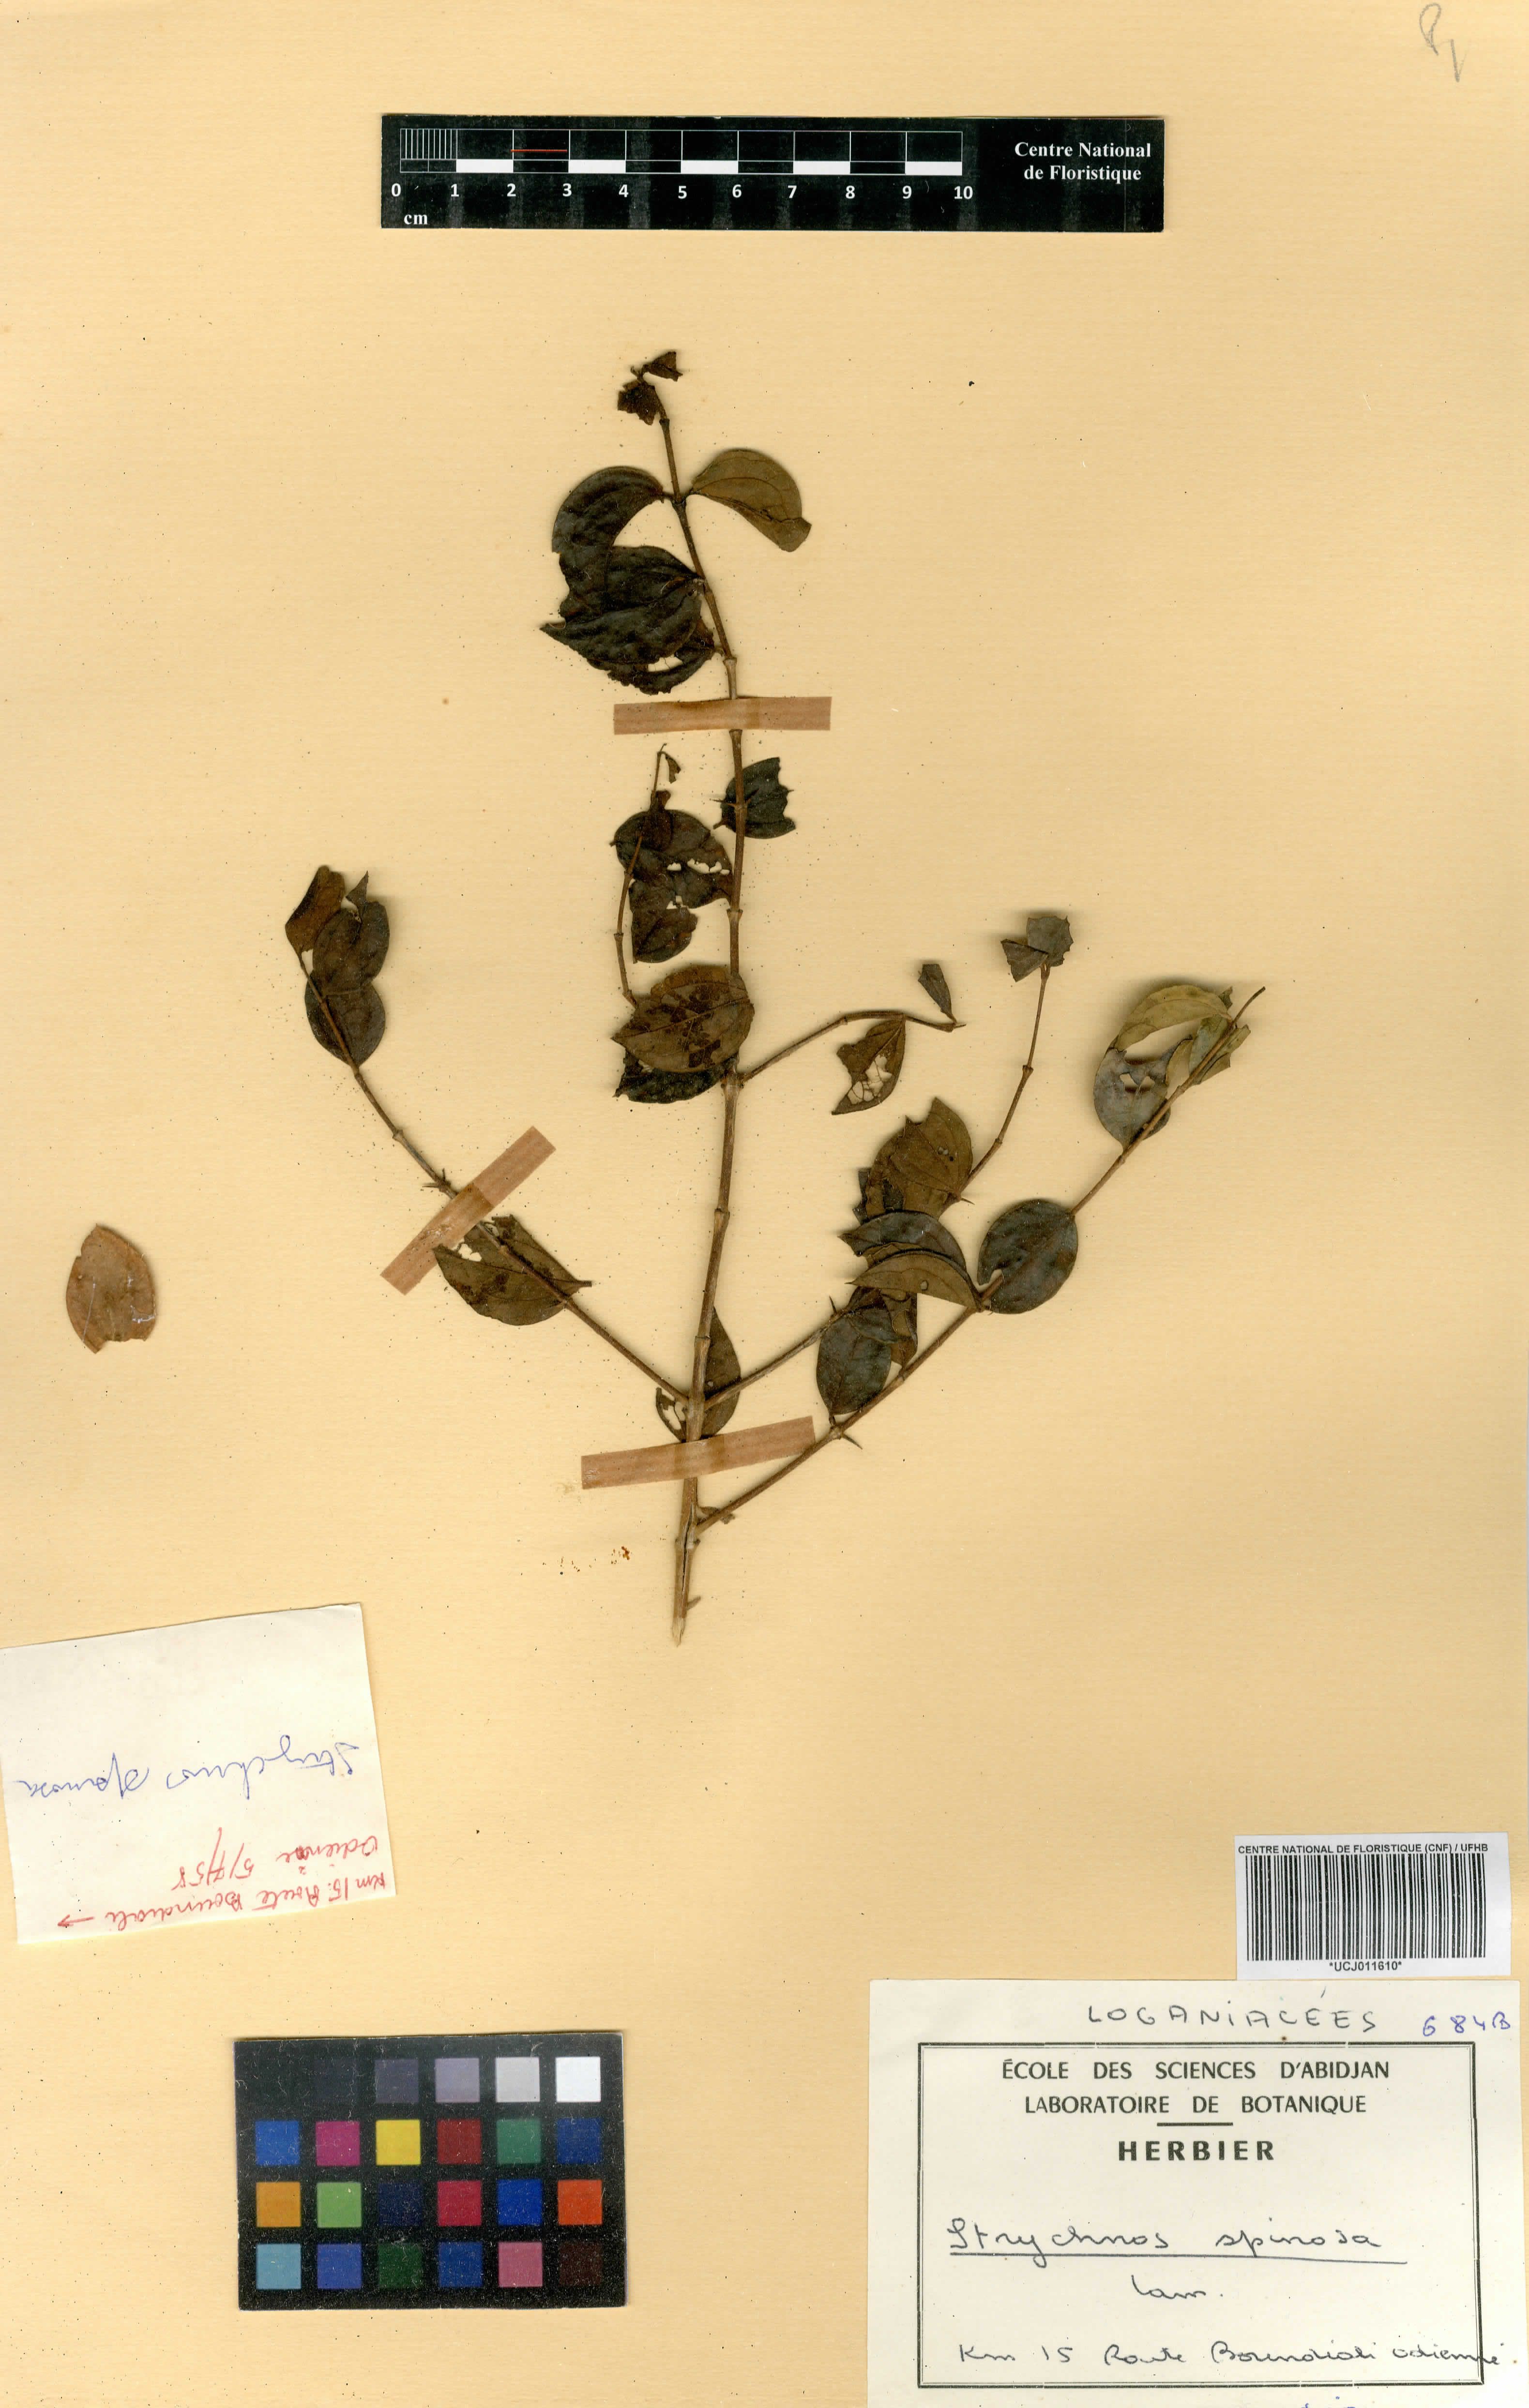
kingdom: Plantae
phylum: Tracheophyta
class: Magnoliopsida
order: Gentianales
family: Loganiaceae
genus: Strychnos
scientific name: Strychnos spinosa
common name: Natal orange
